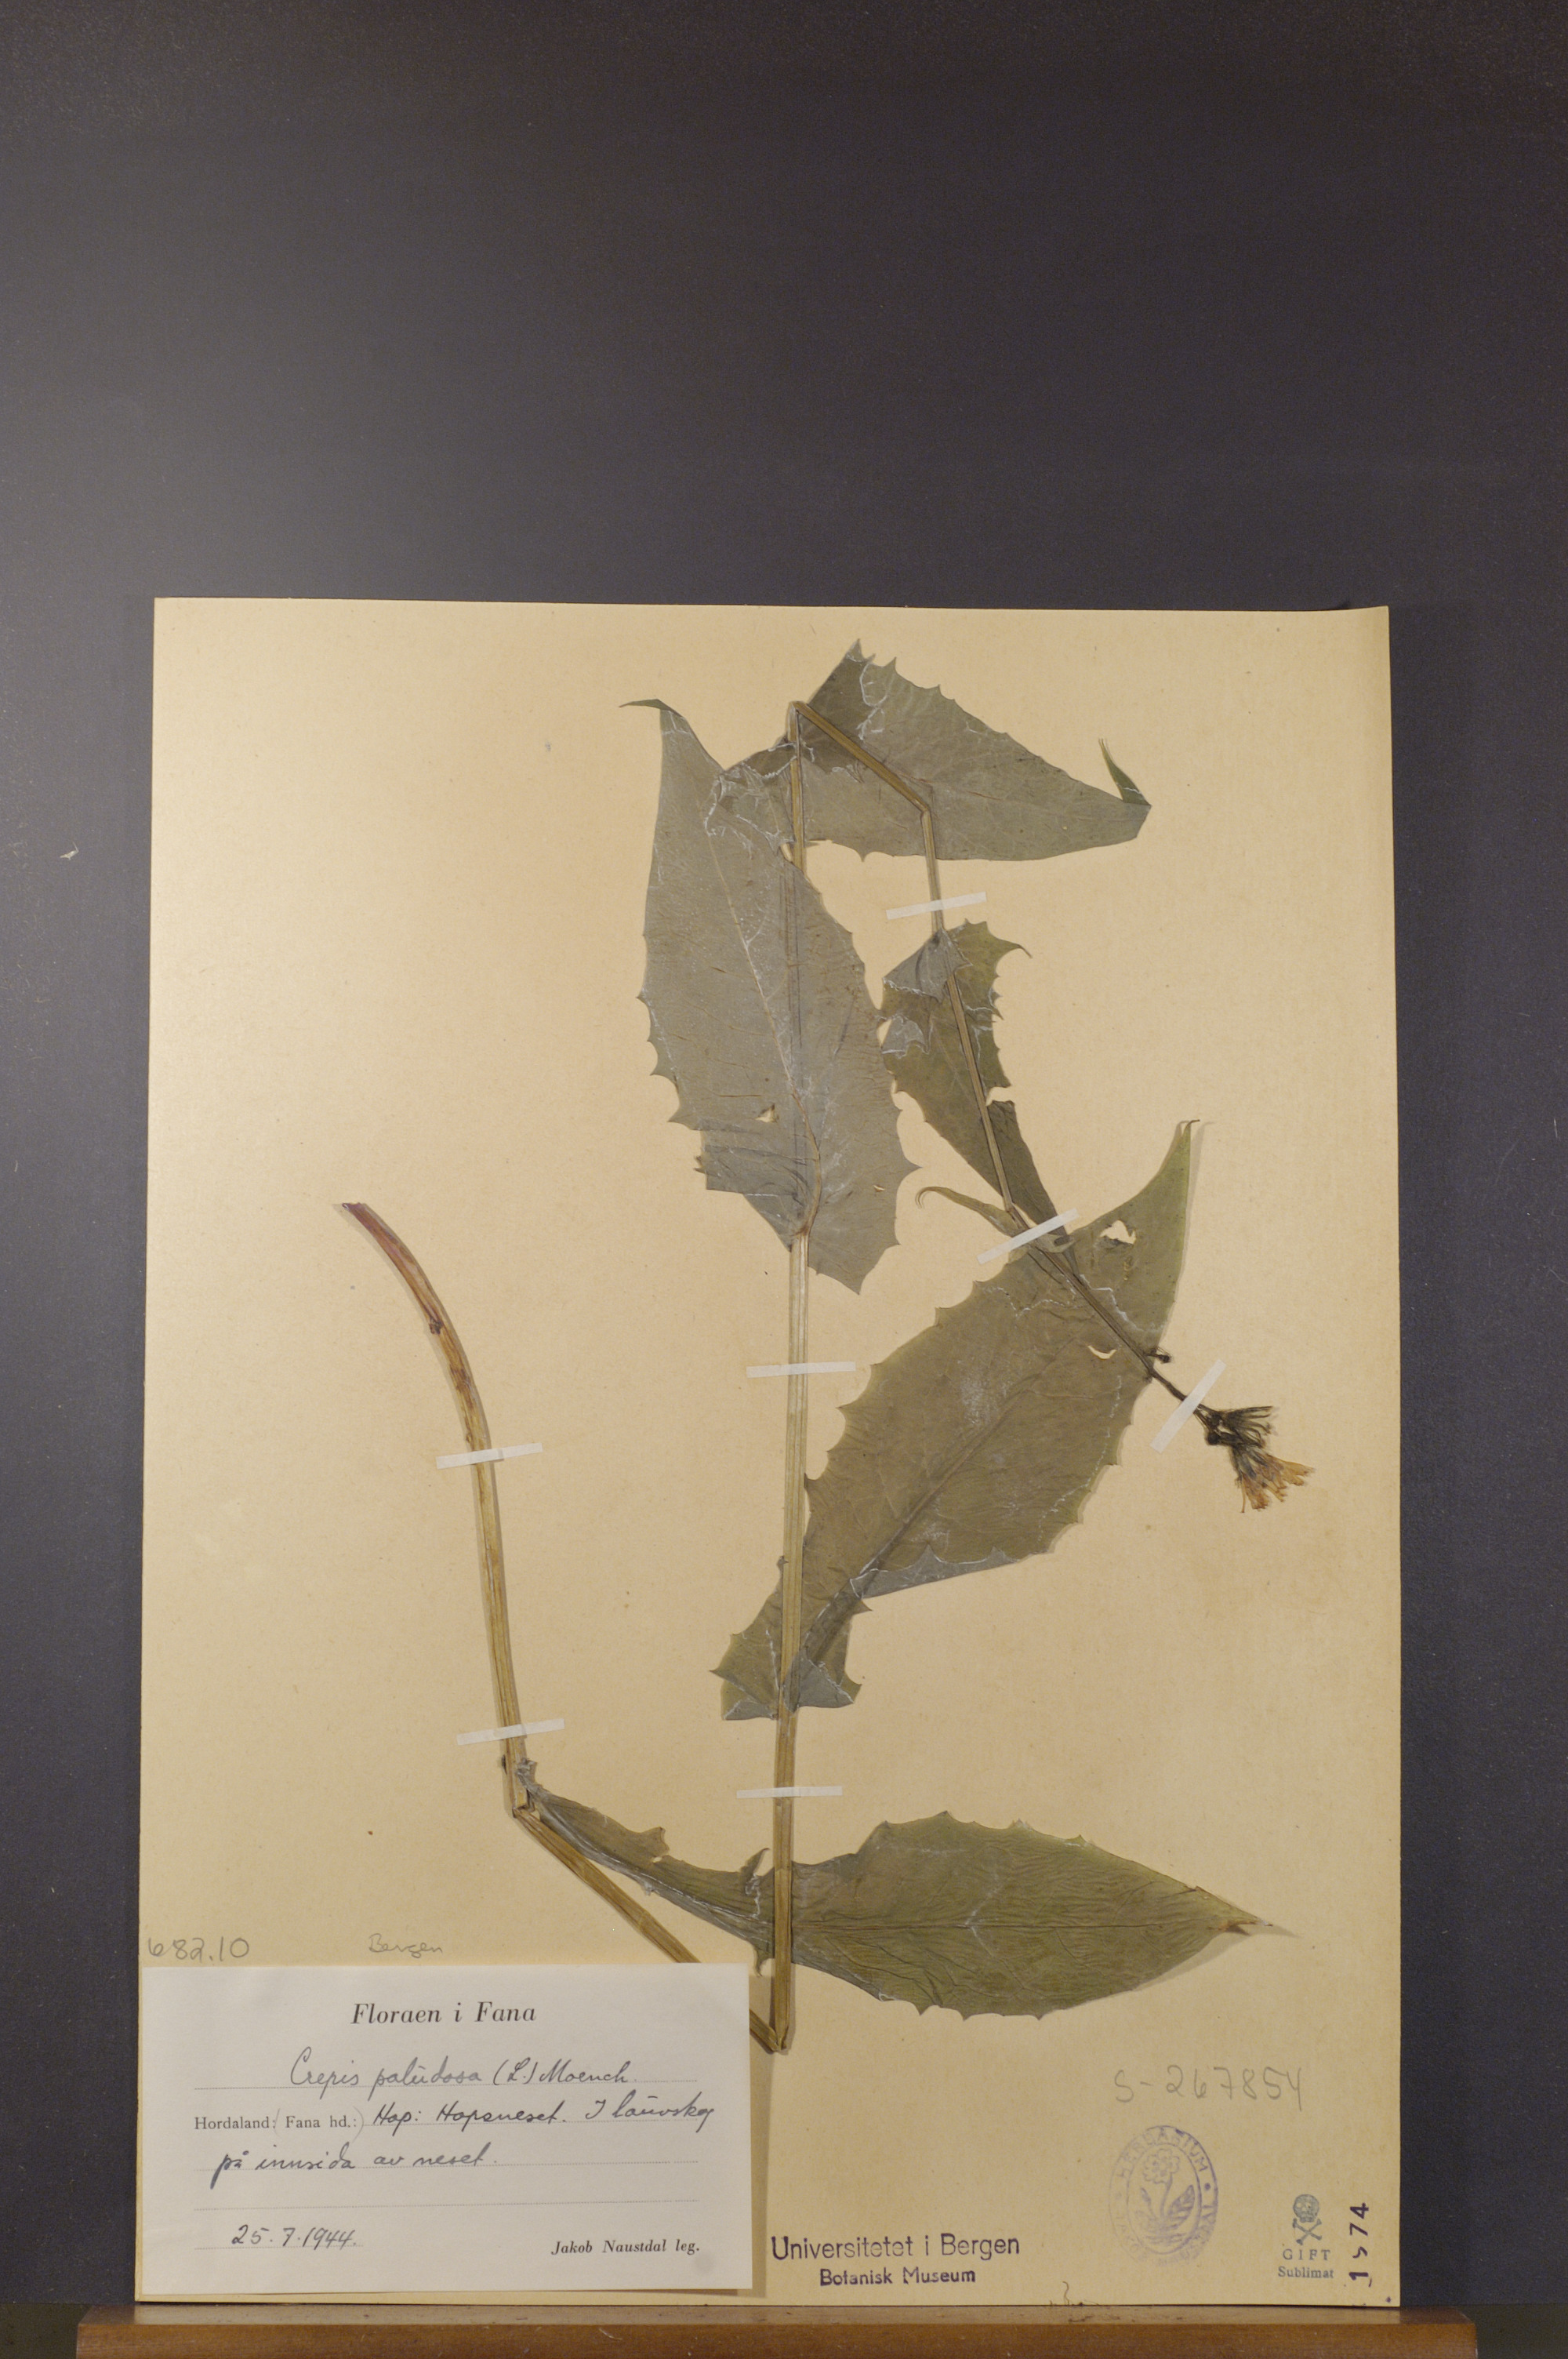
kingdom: Plantae
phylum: Tracheophyta
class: Magnoliopsida
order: Asterales
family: Asteraceae
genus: Crepis
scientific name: Crepis paludosa
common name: Marsh hawk's-beard
